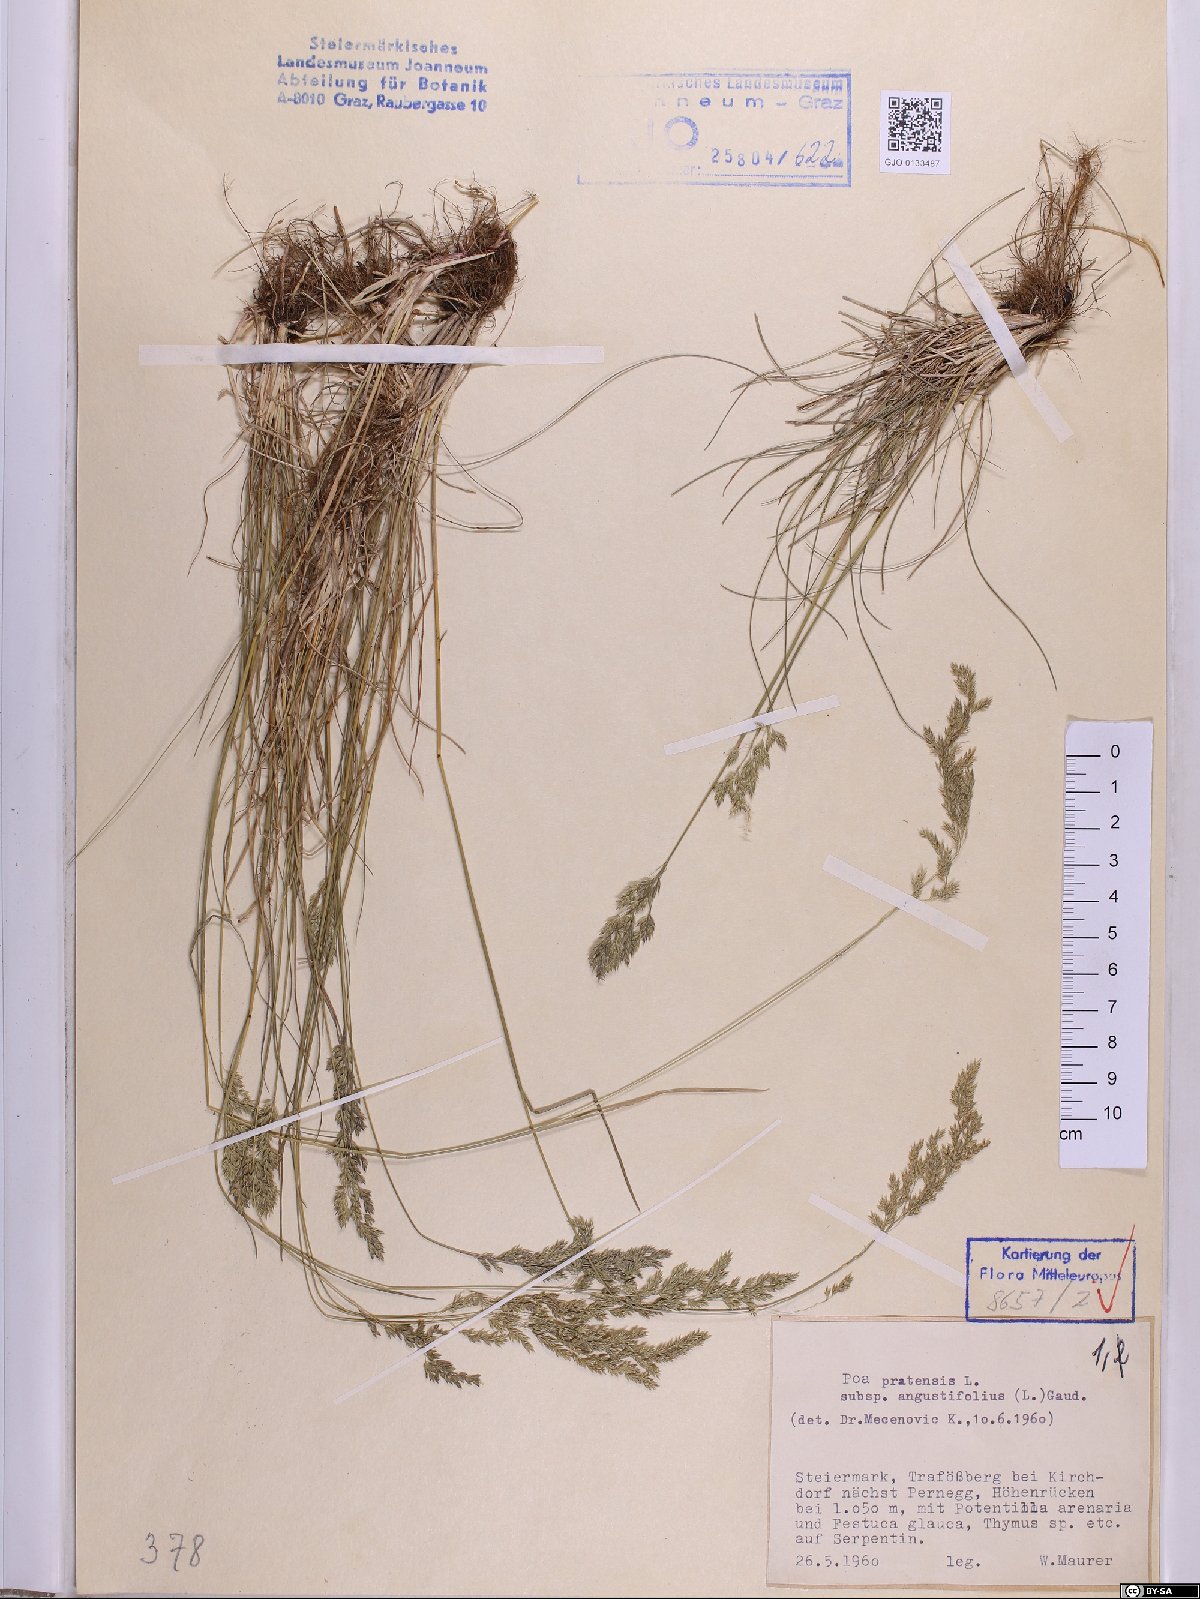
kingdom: Plantae
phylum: Tracheophyta
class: Liliopsida
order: Poales
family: Poaceae
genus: Poa
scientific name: Poa angustifolia
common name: Narrow-leaved meadow-grass
